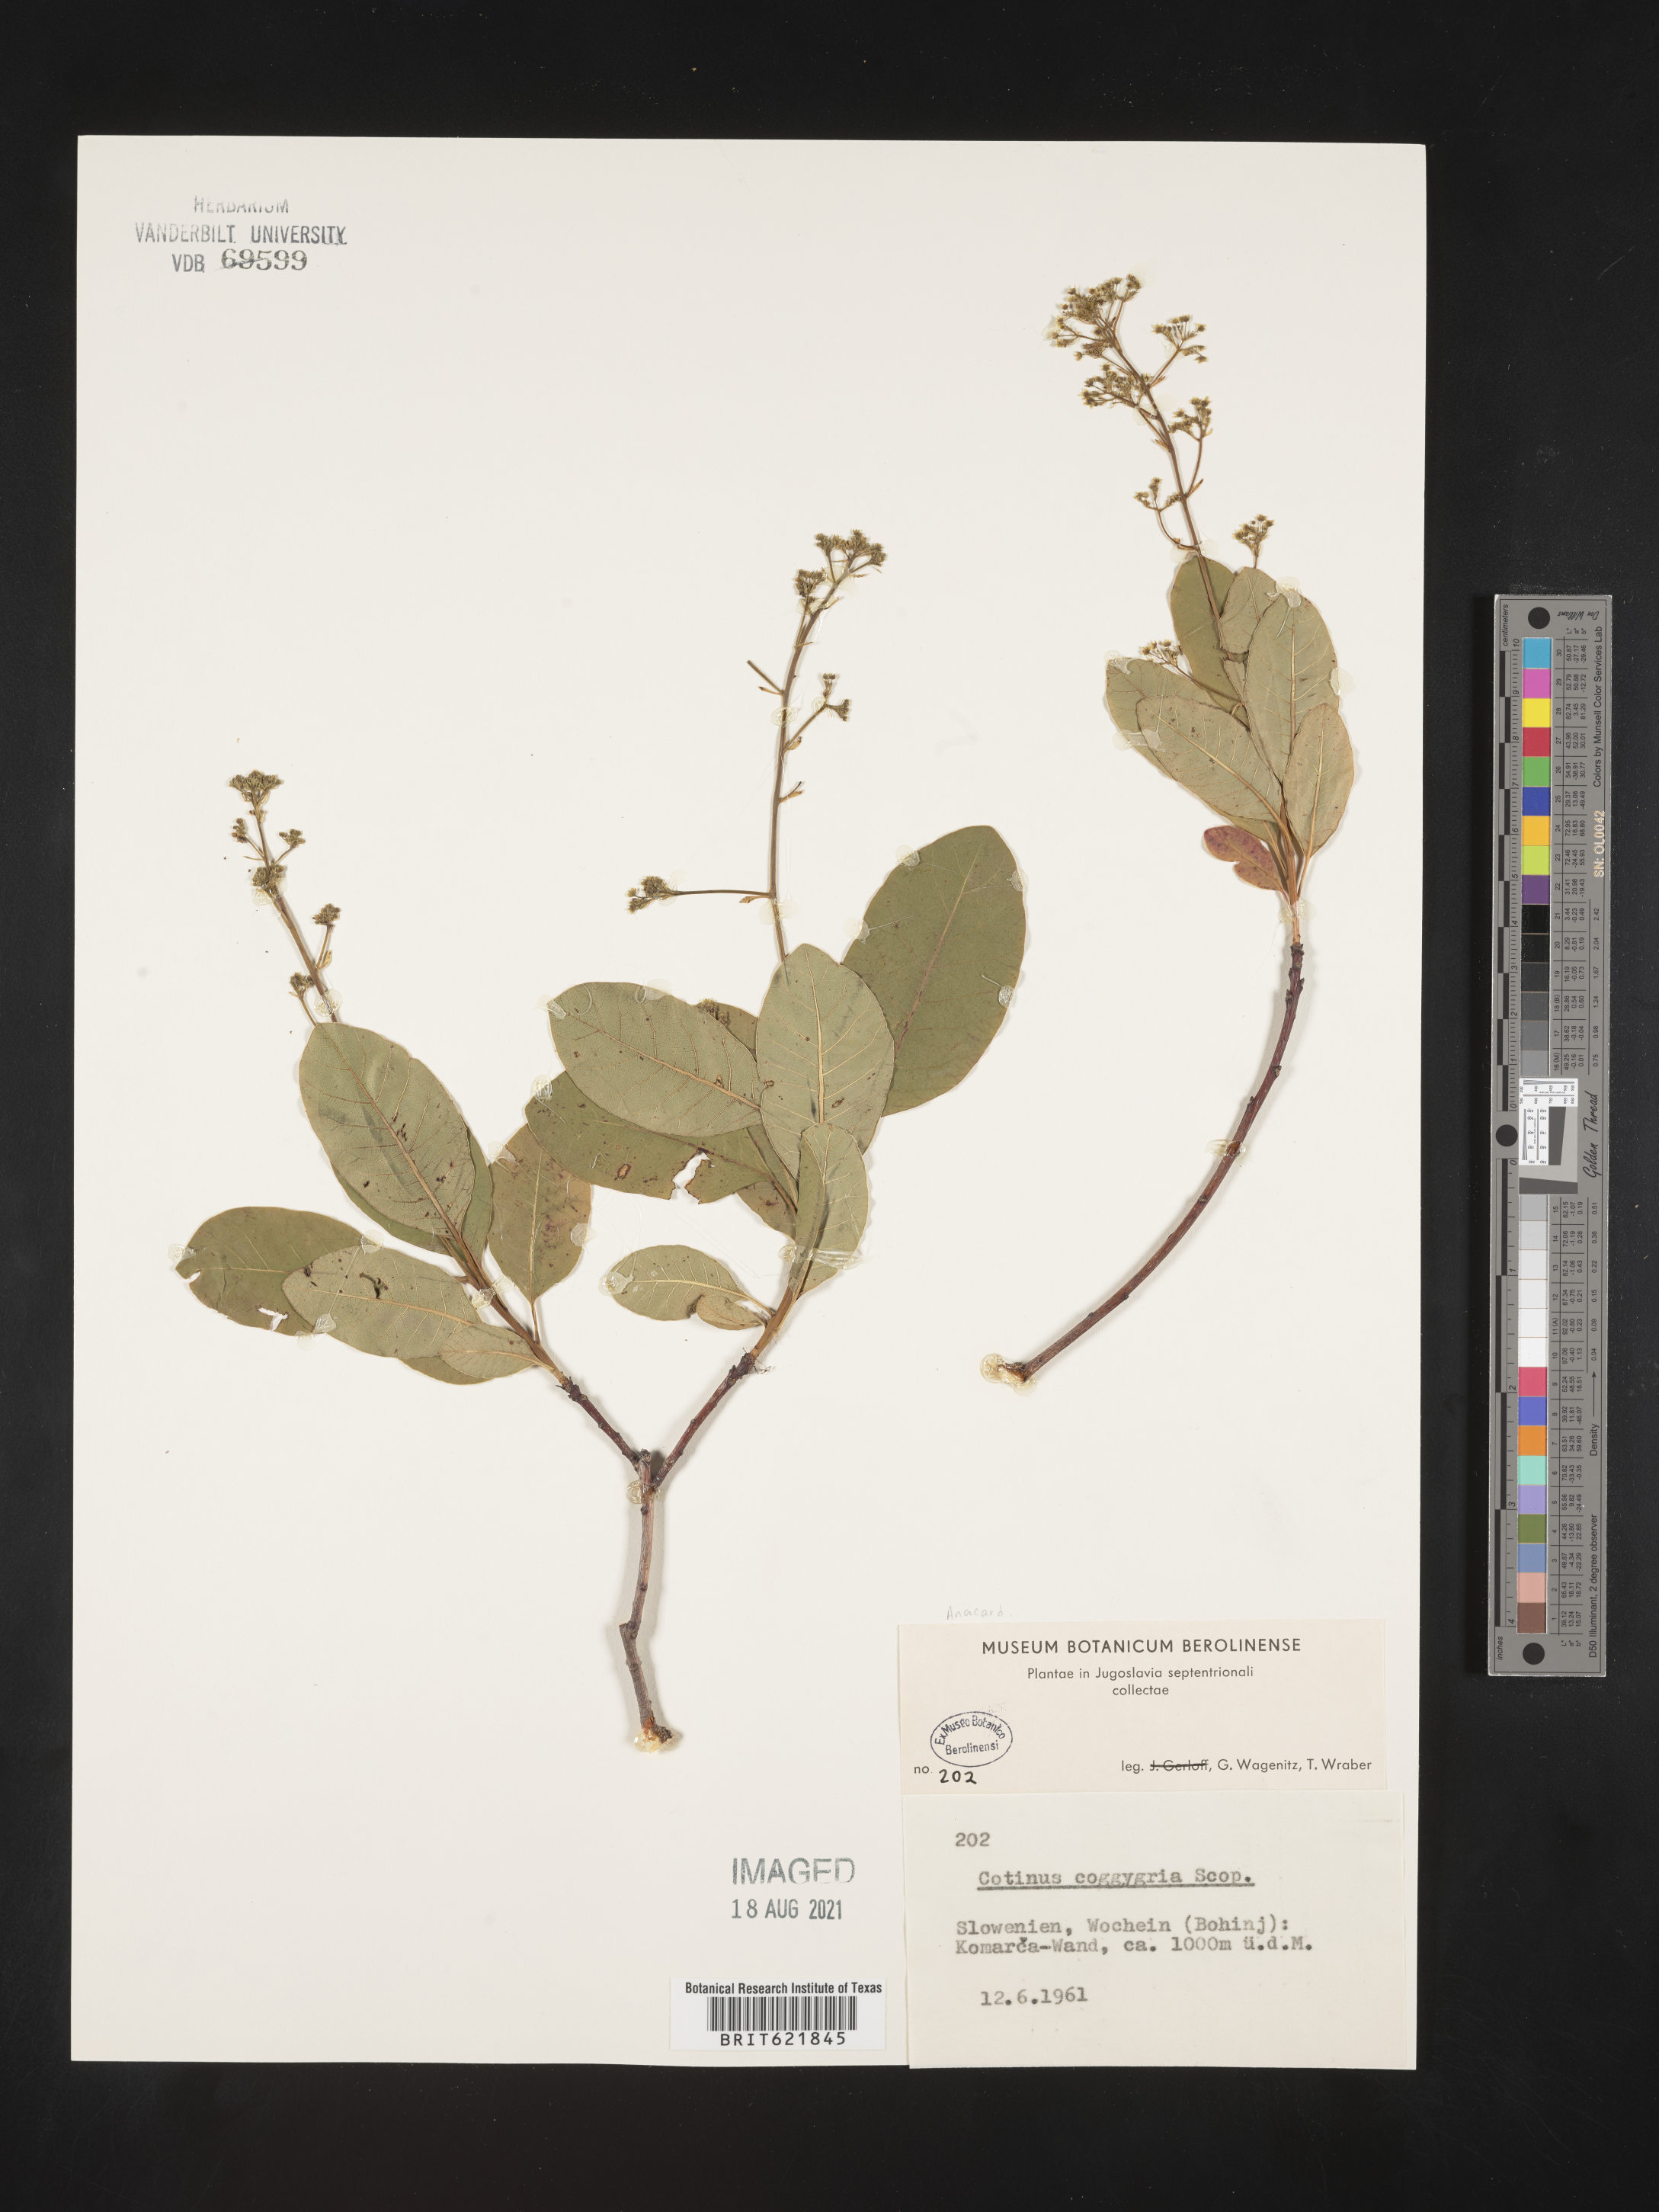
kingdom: Plantae
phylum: Tracheophyta
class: Magnoliopsida
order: Sapindales
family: Anacardiaceae
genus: Cotinus
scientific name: Cotinus coggygria
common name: Smoke-tree
